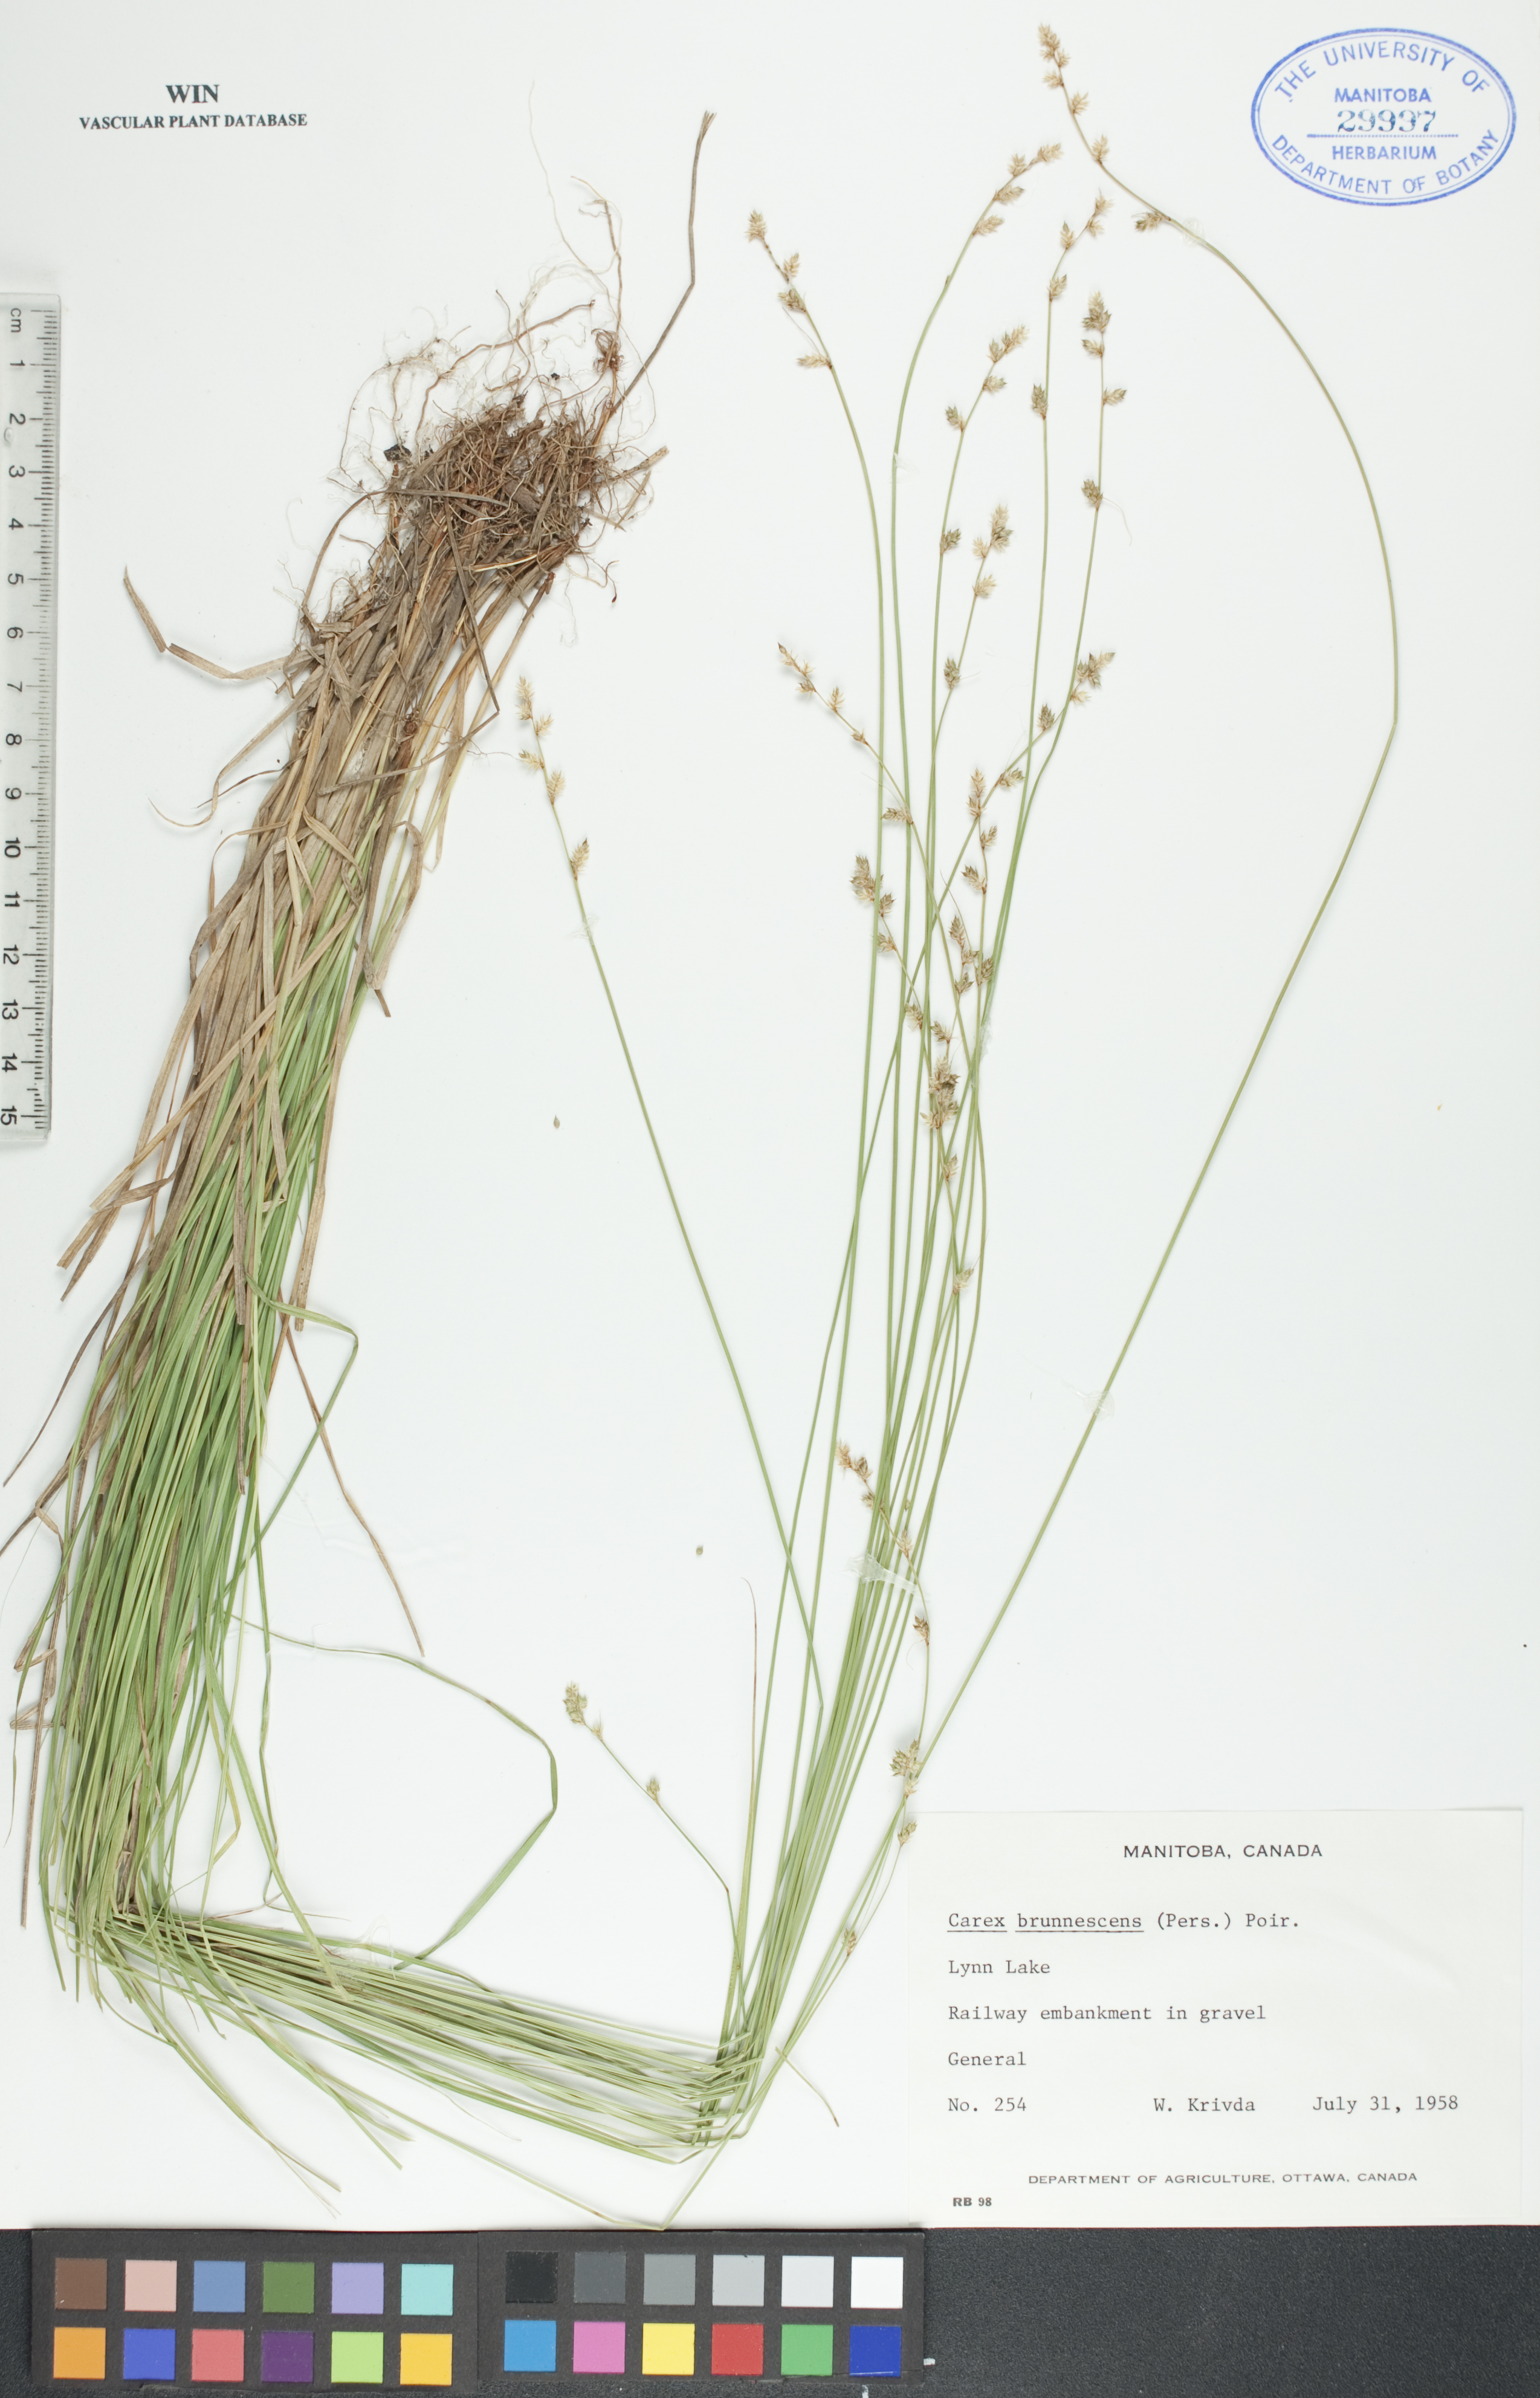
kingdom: Plantae
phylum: Tracheophyta
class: Liliopsida
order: Poales
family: Cyperaceae
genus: Carex
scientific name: Carex brunnescens
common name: Brown sedge
